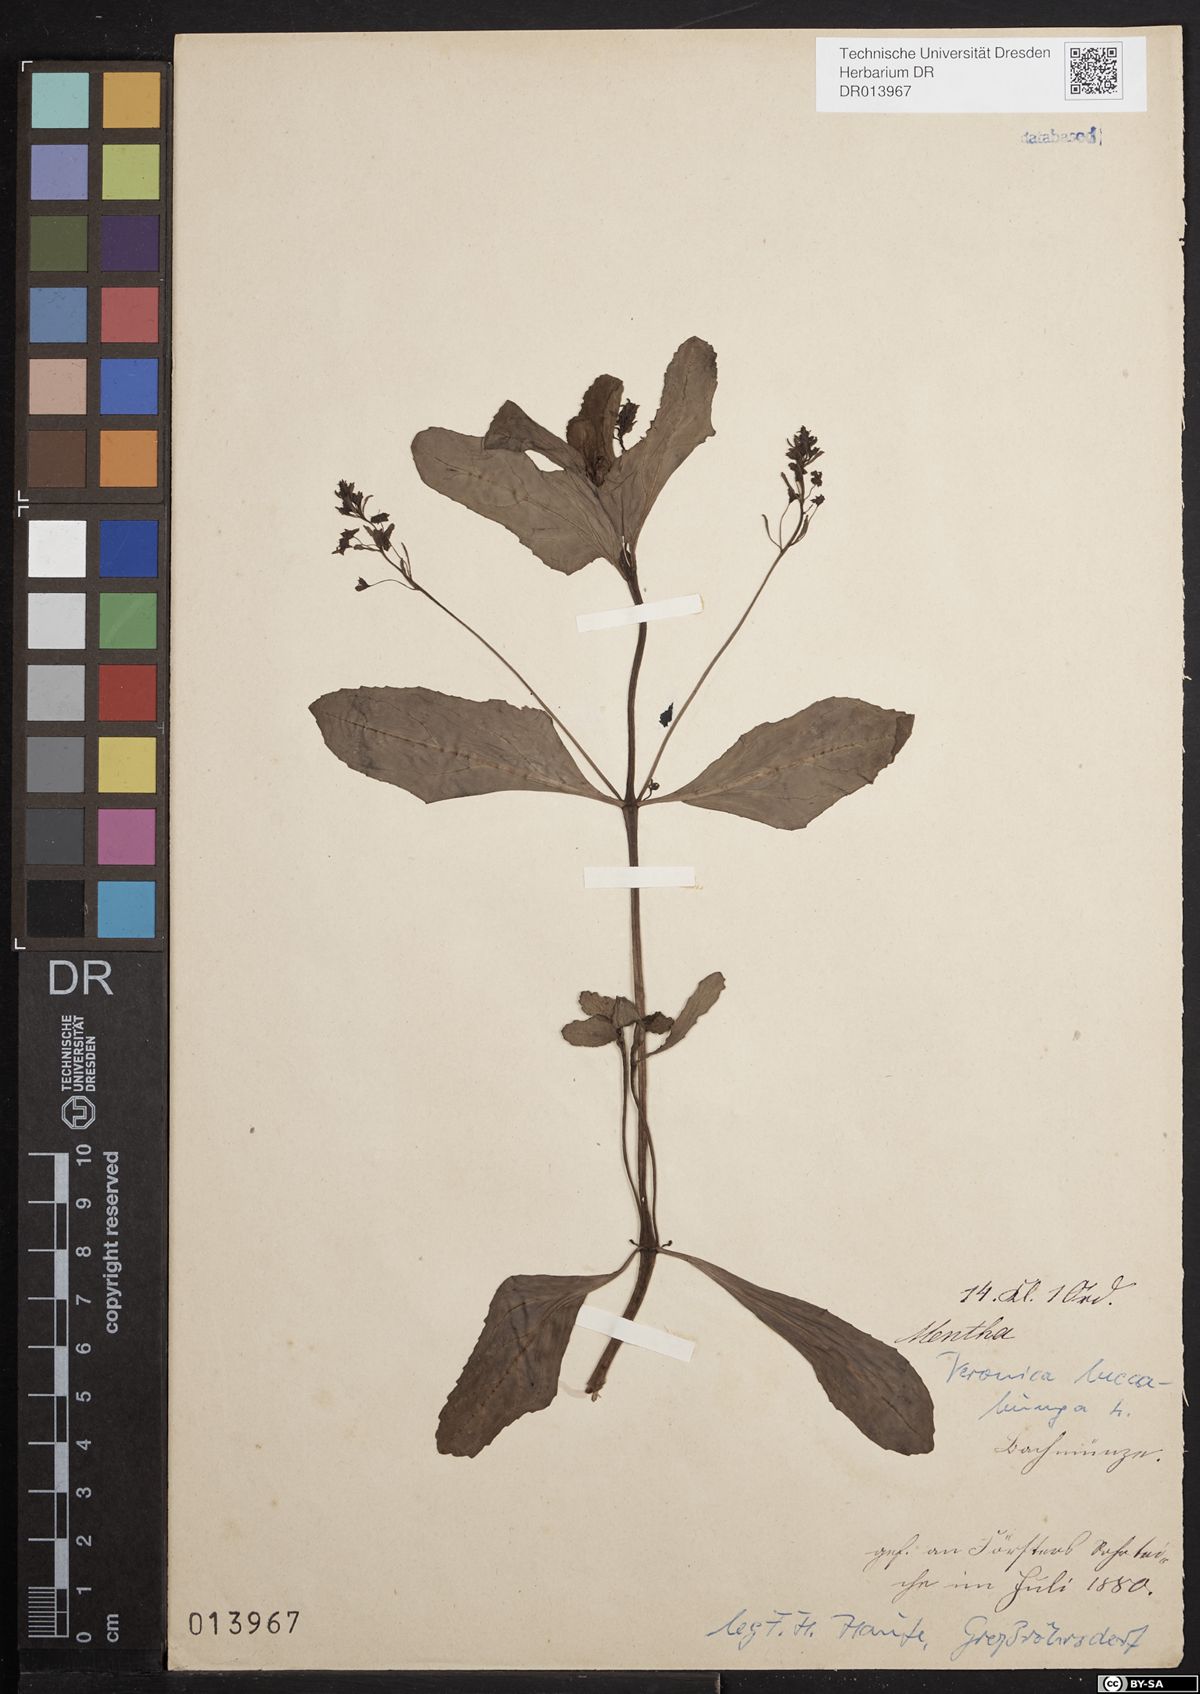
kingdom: Plantae
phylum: Tracheophyta
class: Magnoliopsida
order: Lamiales
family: Plantaginaceae
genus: Veronica
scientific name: Veronica beccabunga
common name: Brooklime
